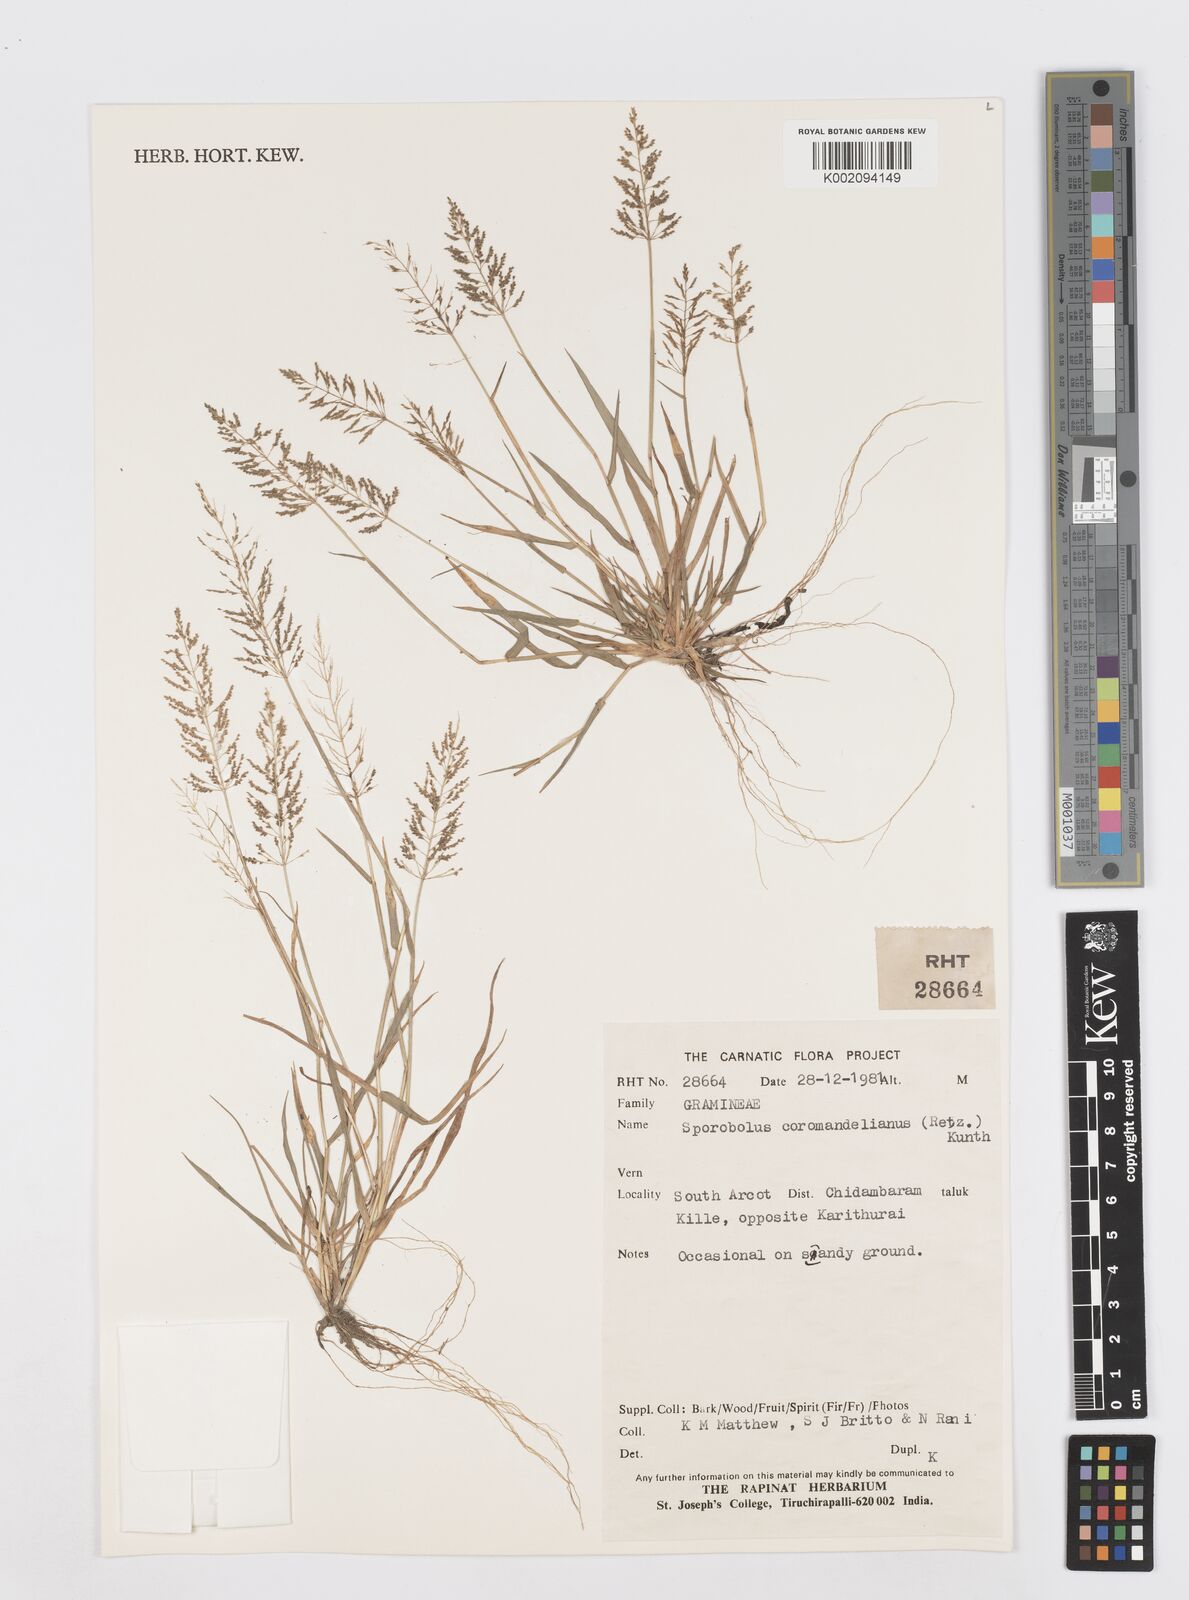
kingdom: Plantae
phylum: Tracheophyta
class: Liliopsida
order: Poales
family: Poaceae
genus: Sporobolus
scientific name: Sporobolus coromandelianus
